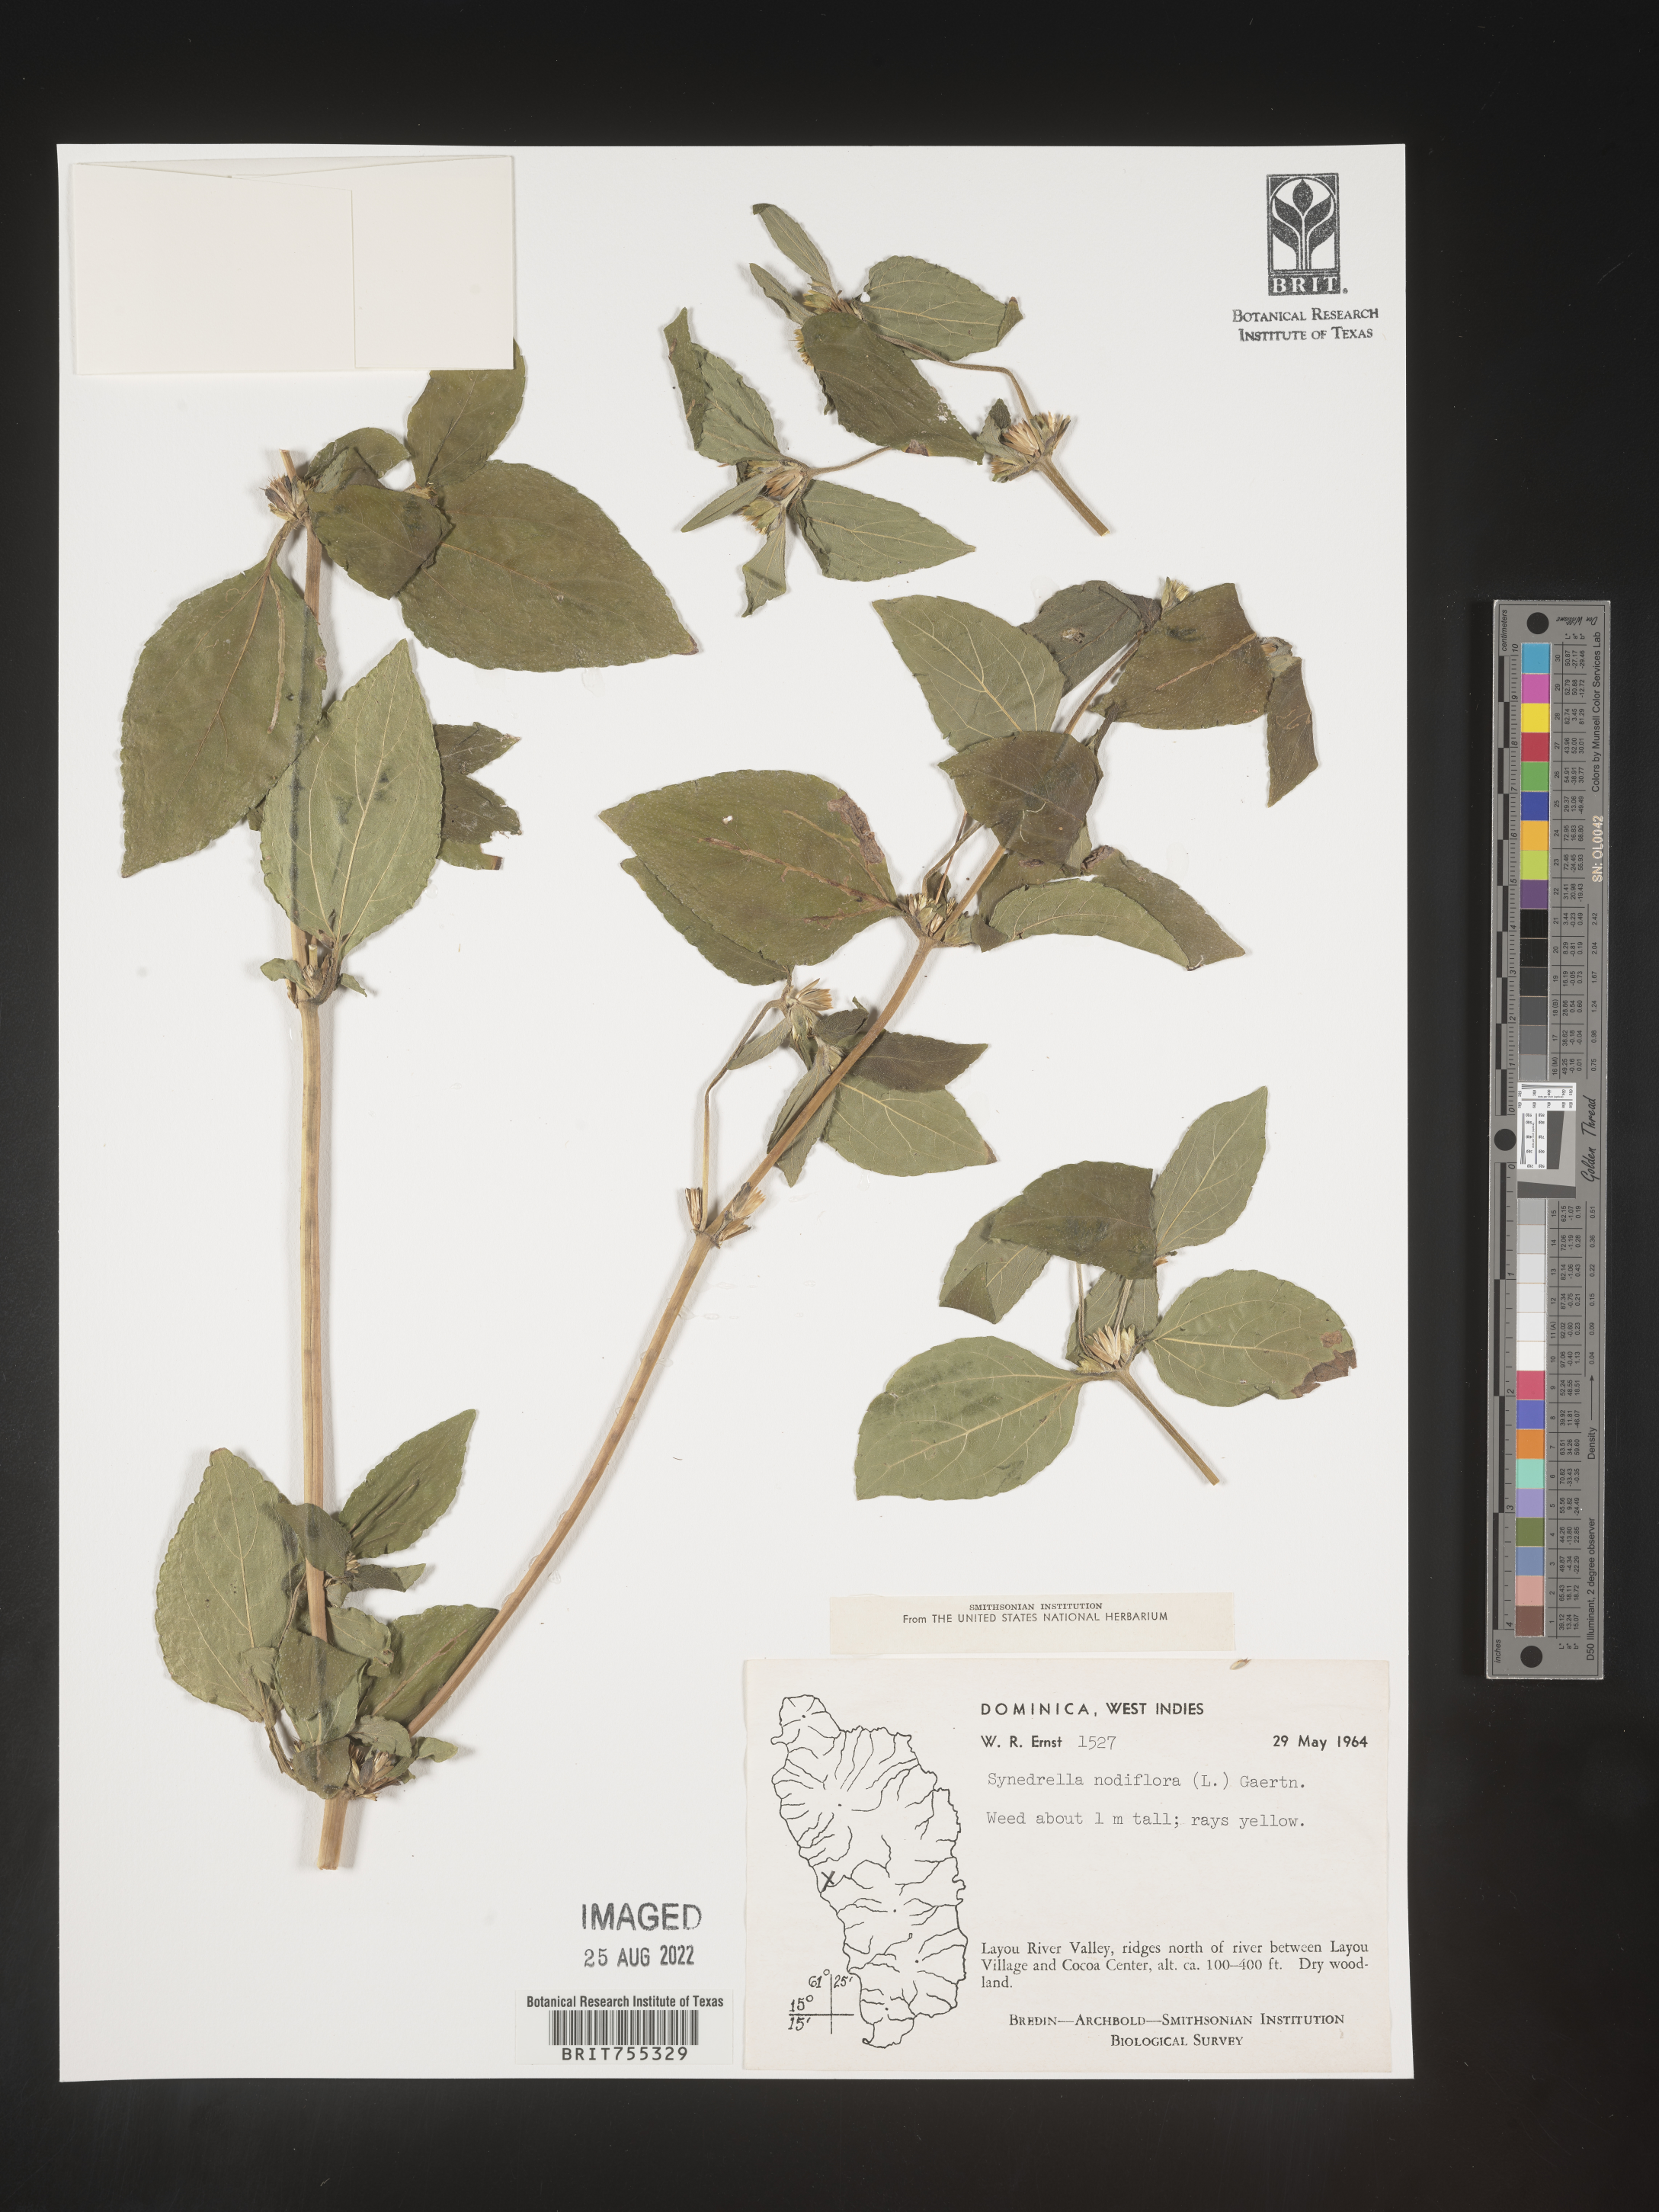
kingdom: Plantae
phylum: Tracheophyta
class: Magnoliopsida
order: Asterales
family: Asteraceae
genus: Synedrella
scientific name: Synedrella
